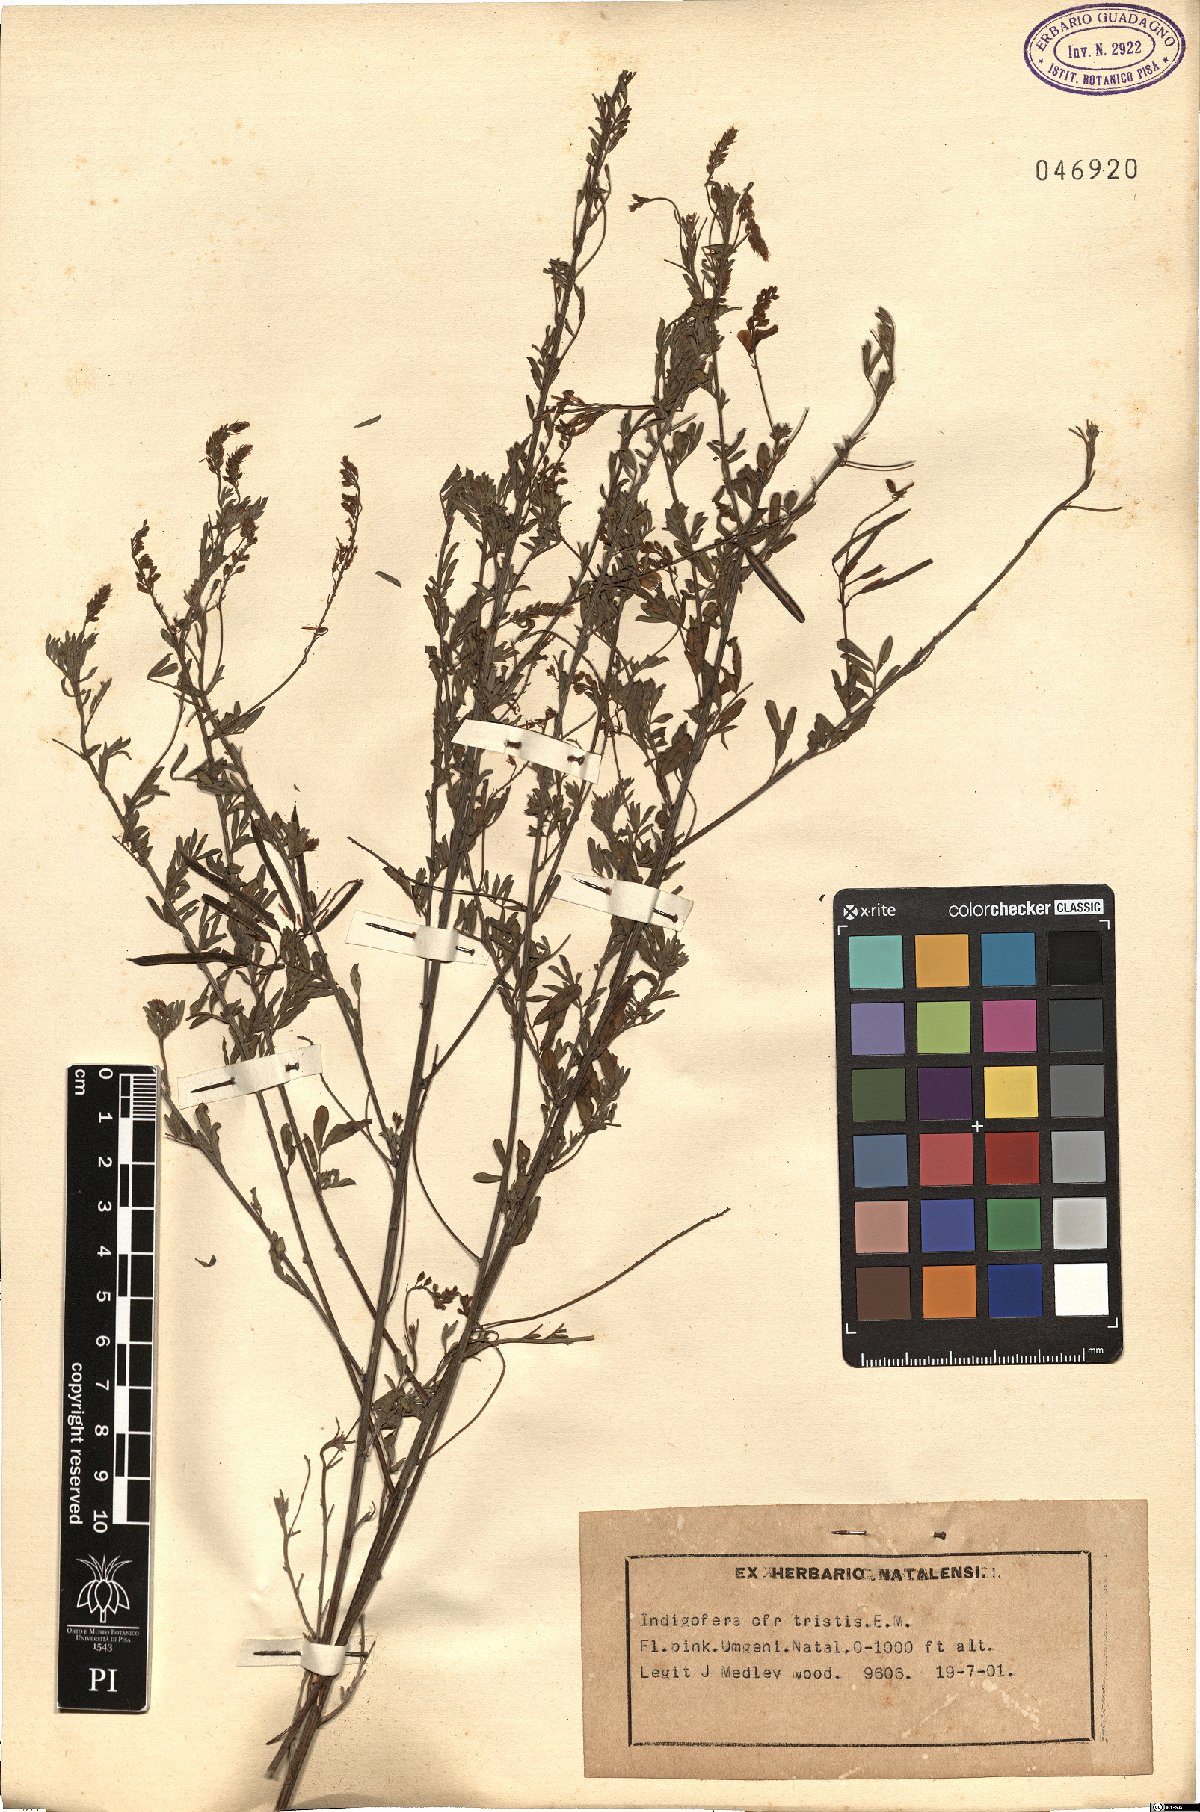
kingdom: Plantae
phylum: Tracheophyta
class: Magnoliopsida
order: Fabales
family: Fabaceae
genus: Indigofera
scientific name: Indigofera tristis
